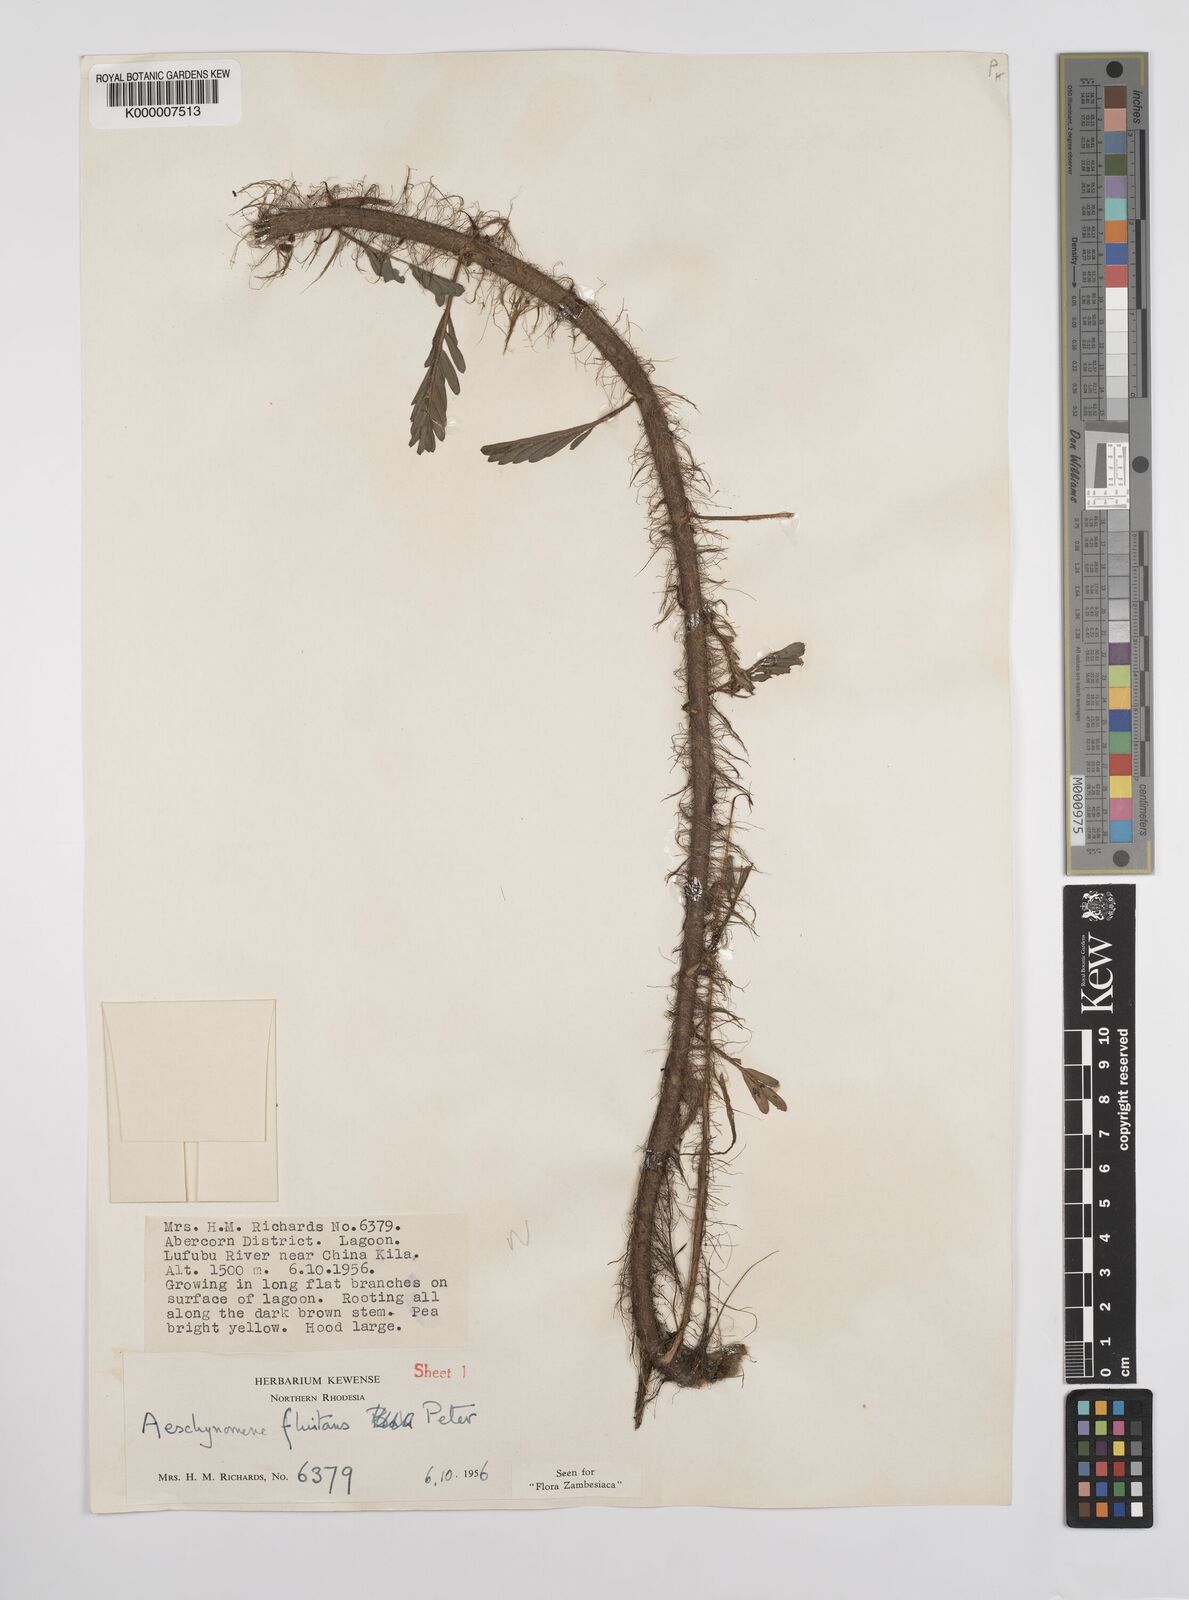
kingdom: Plantae
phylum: Tracheophyta
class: Magnoliopsida
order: Fabales
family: Fabaceae
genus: Aeschynomene
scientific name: Aeschynomene fluitans
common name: Giant water sensitive plant
